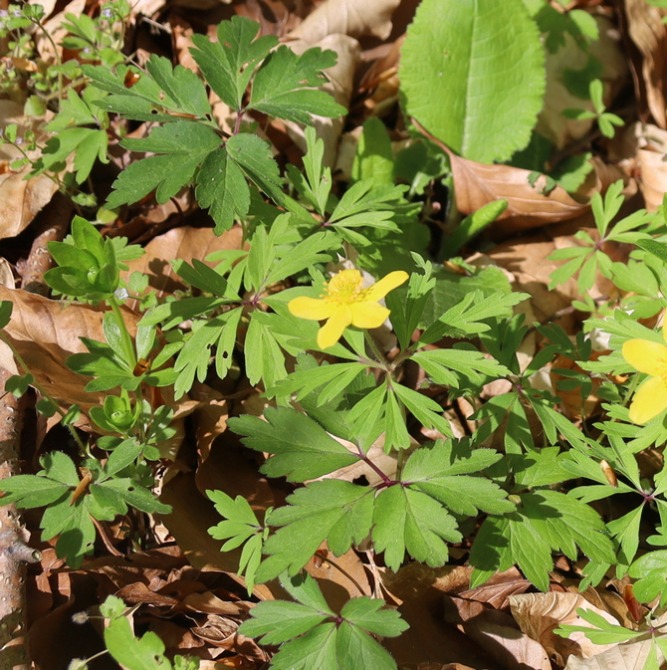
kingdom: Plantae
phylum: Tracheophyta
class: Magnoliopsida
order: Ranunculales
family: Ranunculaceae
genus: Anemone
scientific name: Anemone ranunculoides
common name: Gul anemone
